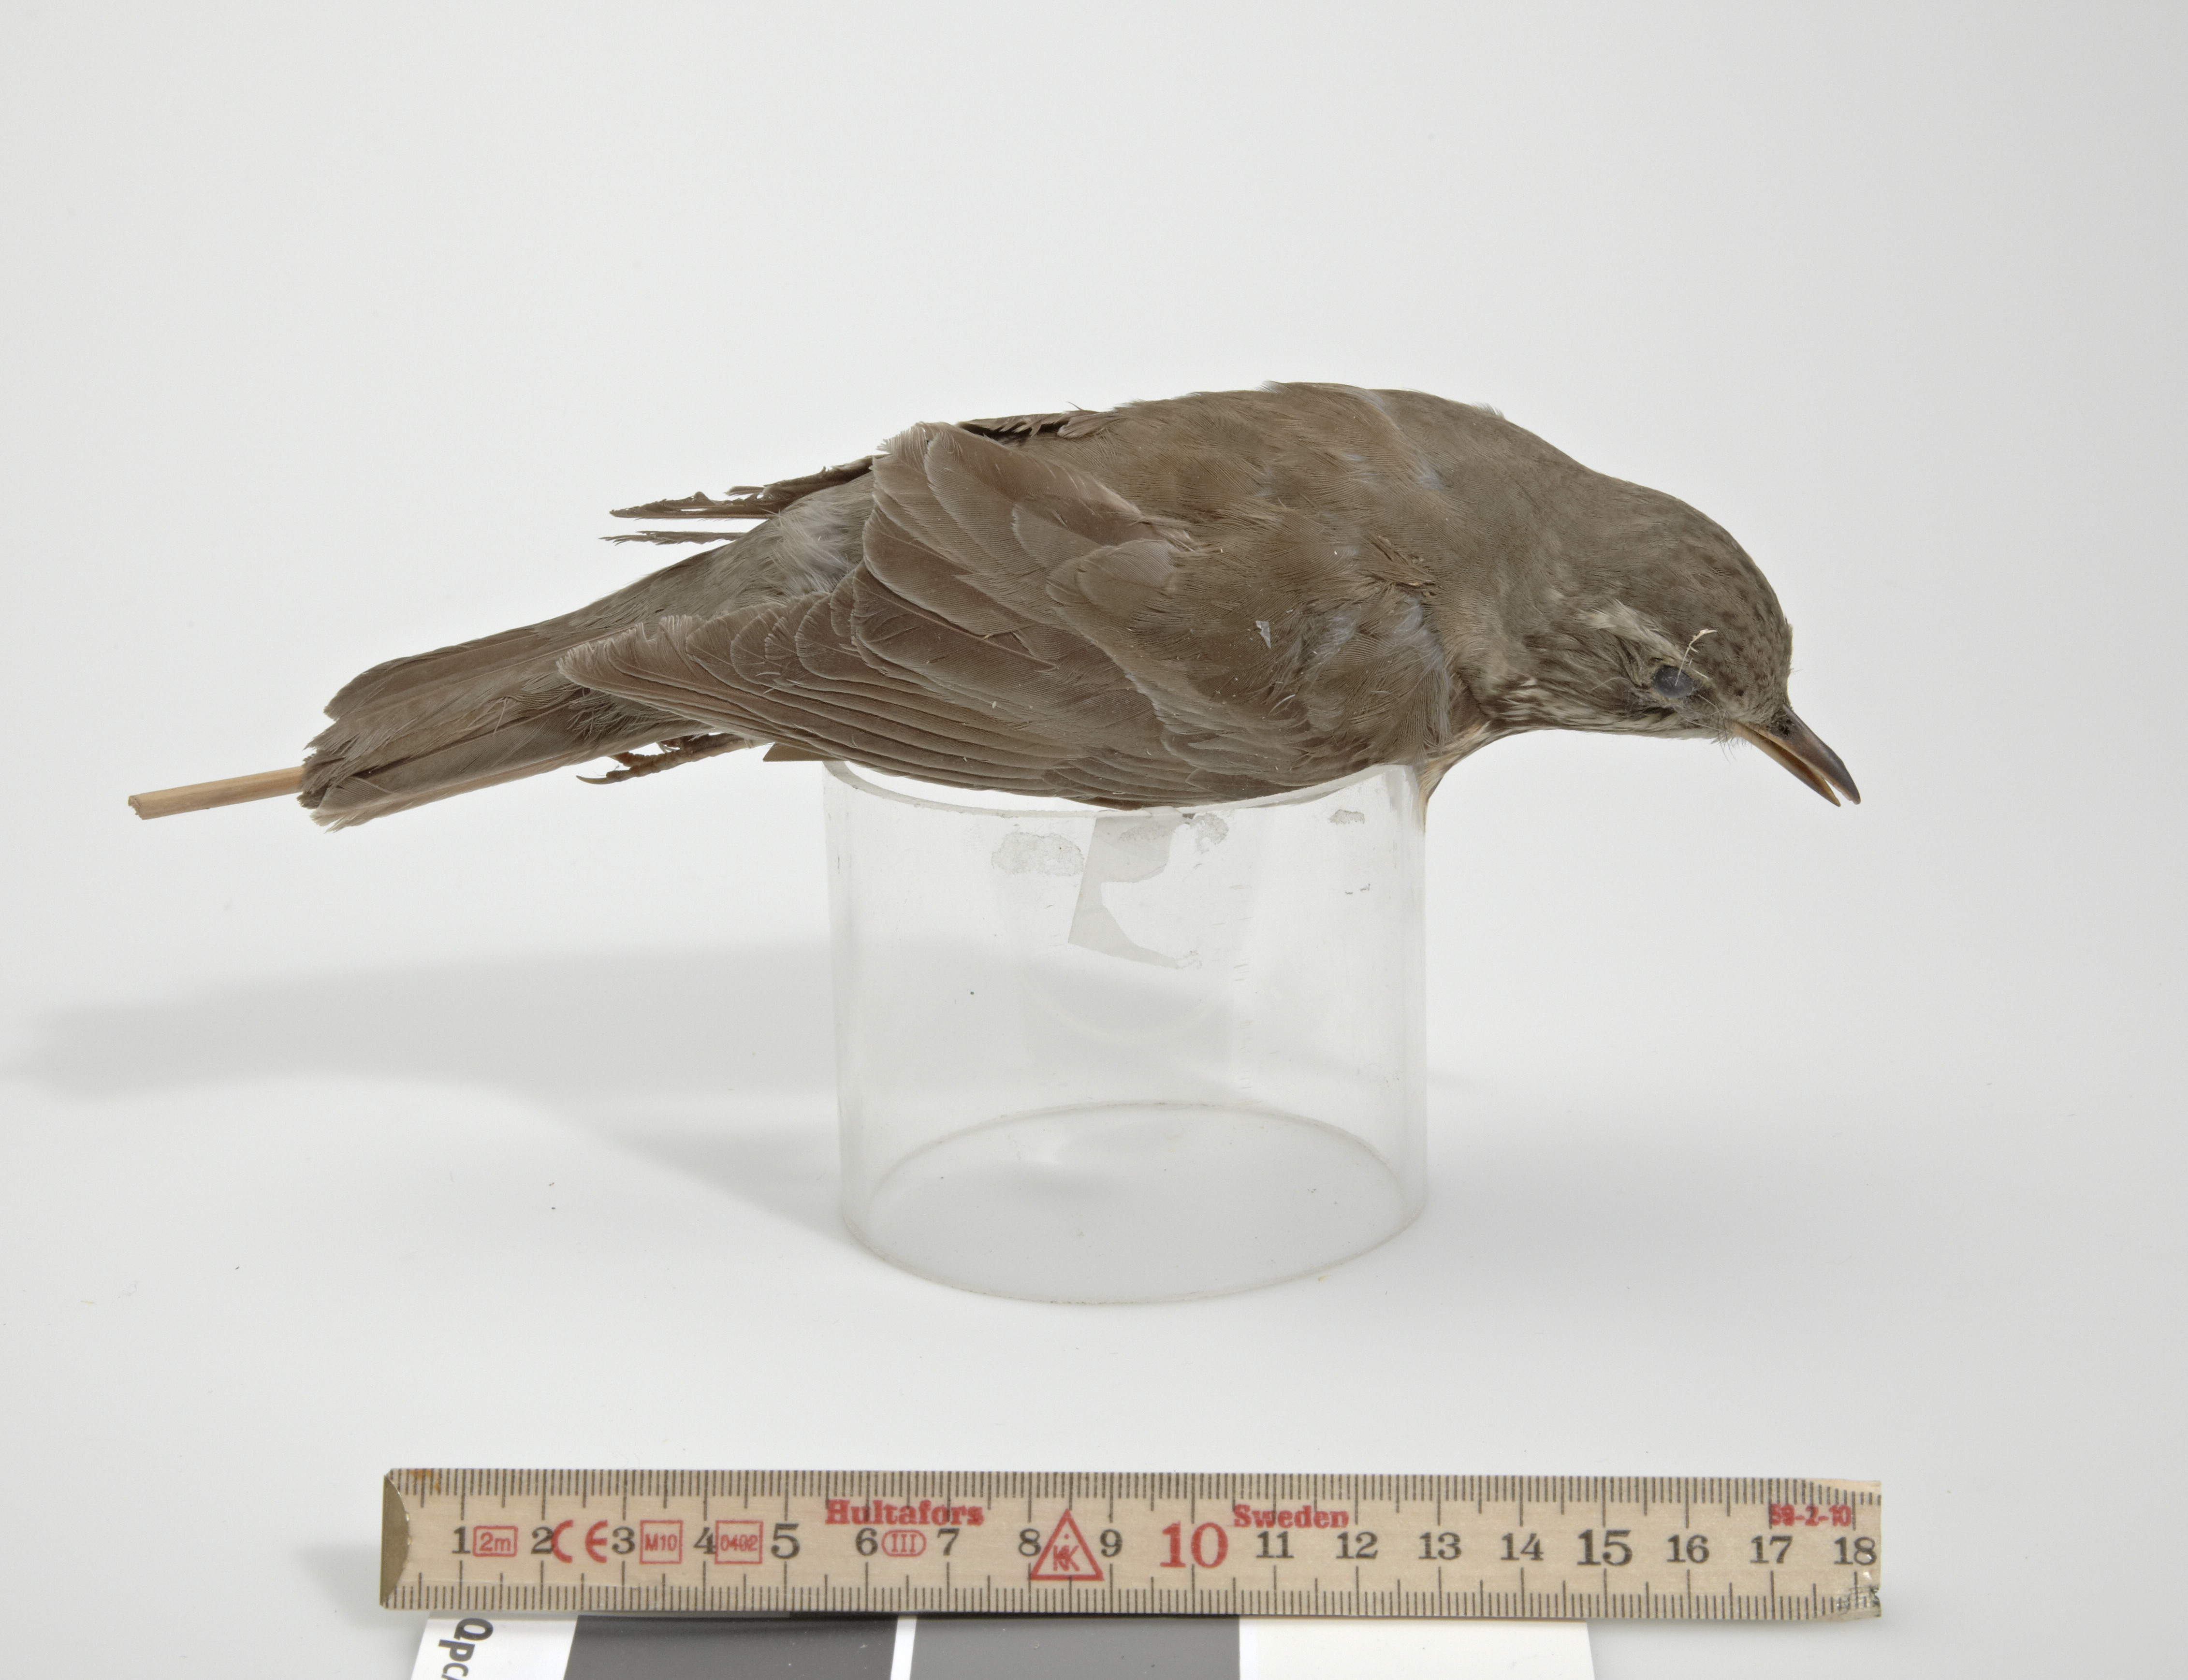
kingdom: Animalia
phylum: Chordata
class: Aves
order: Passeriformes
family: Turdidae
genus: Turdus
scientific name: Turdus
